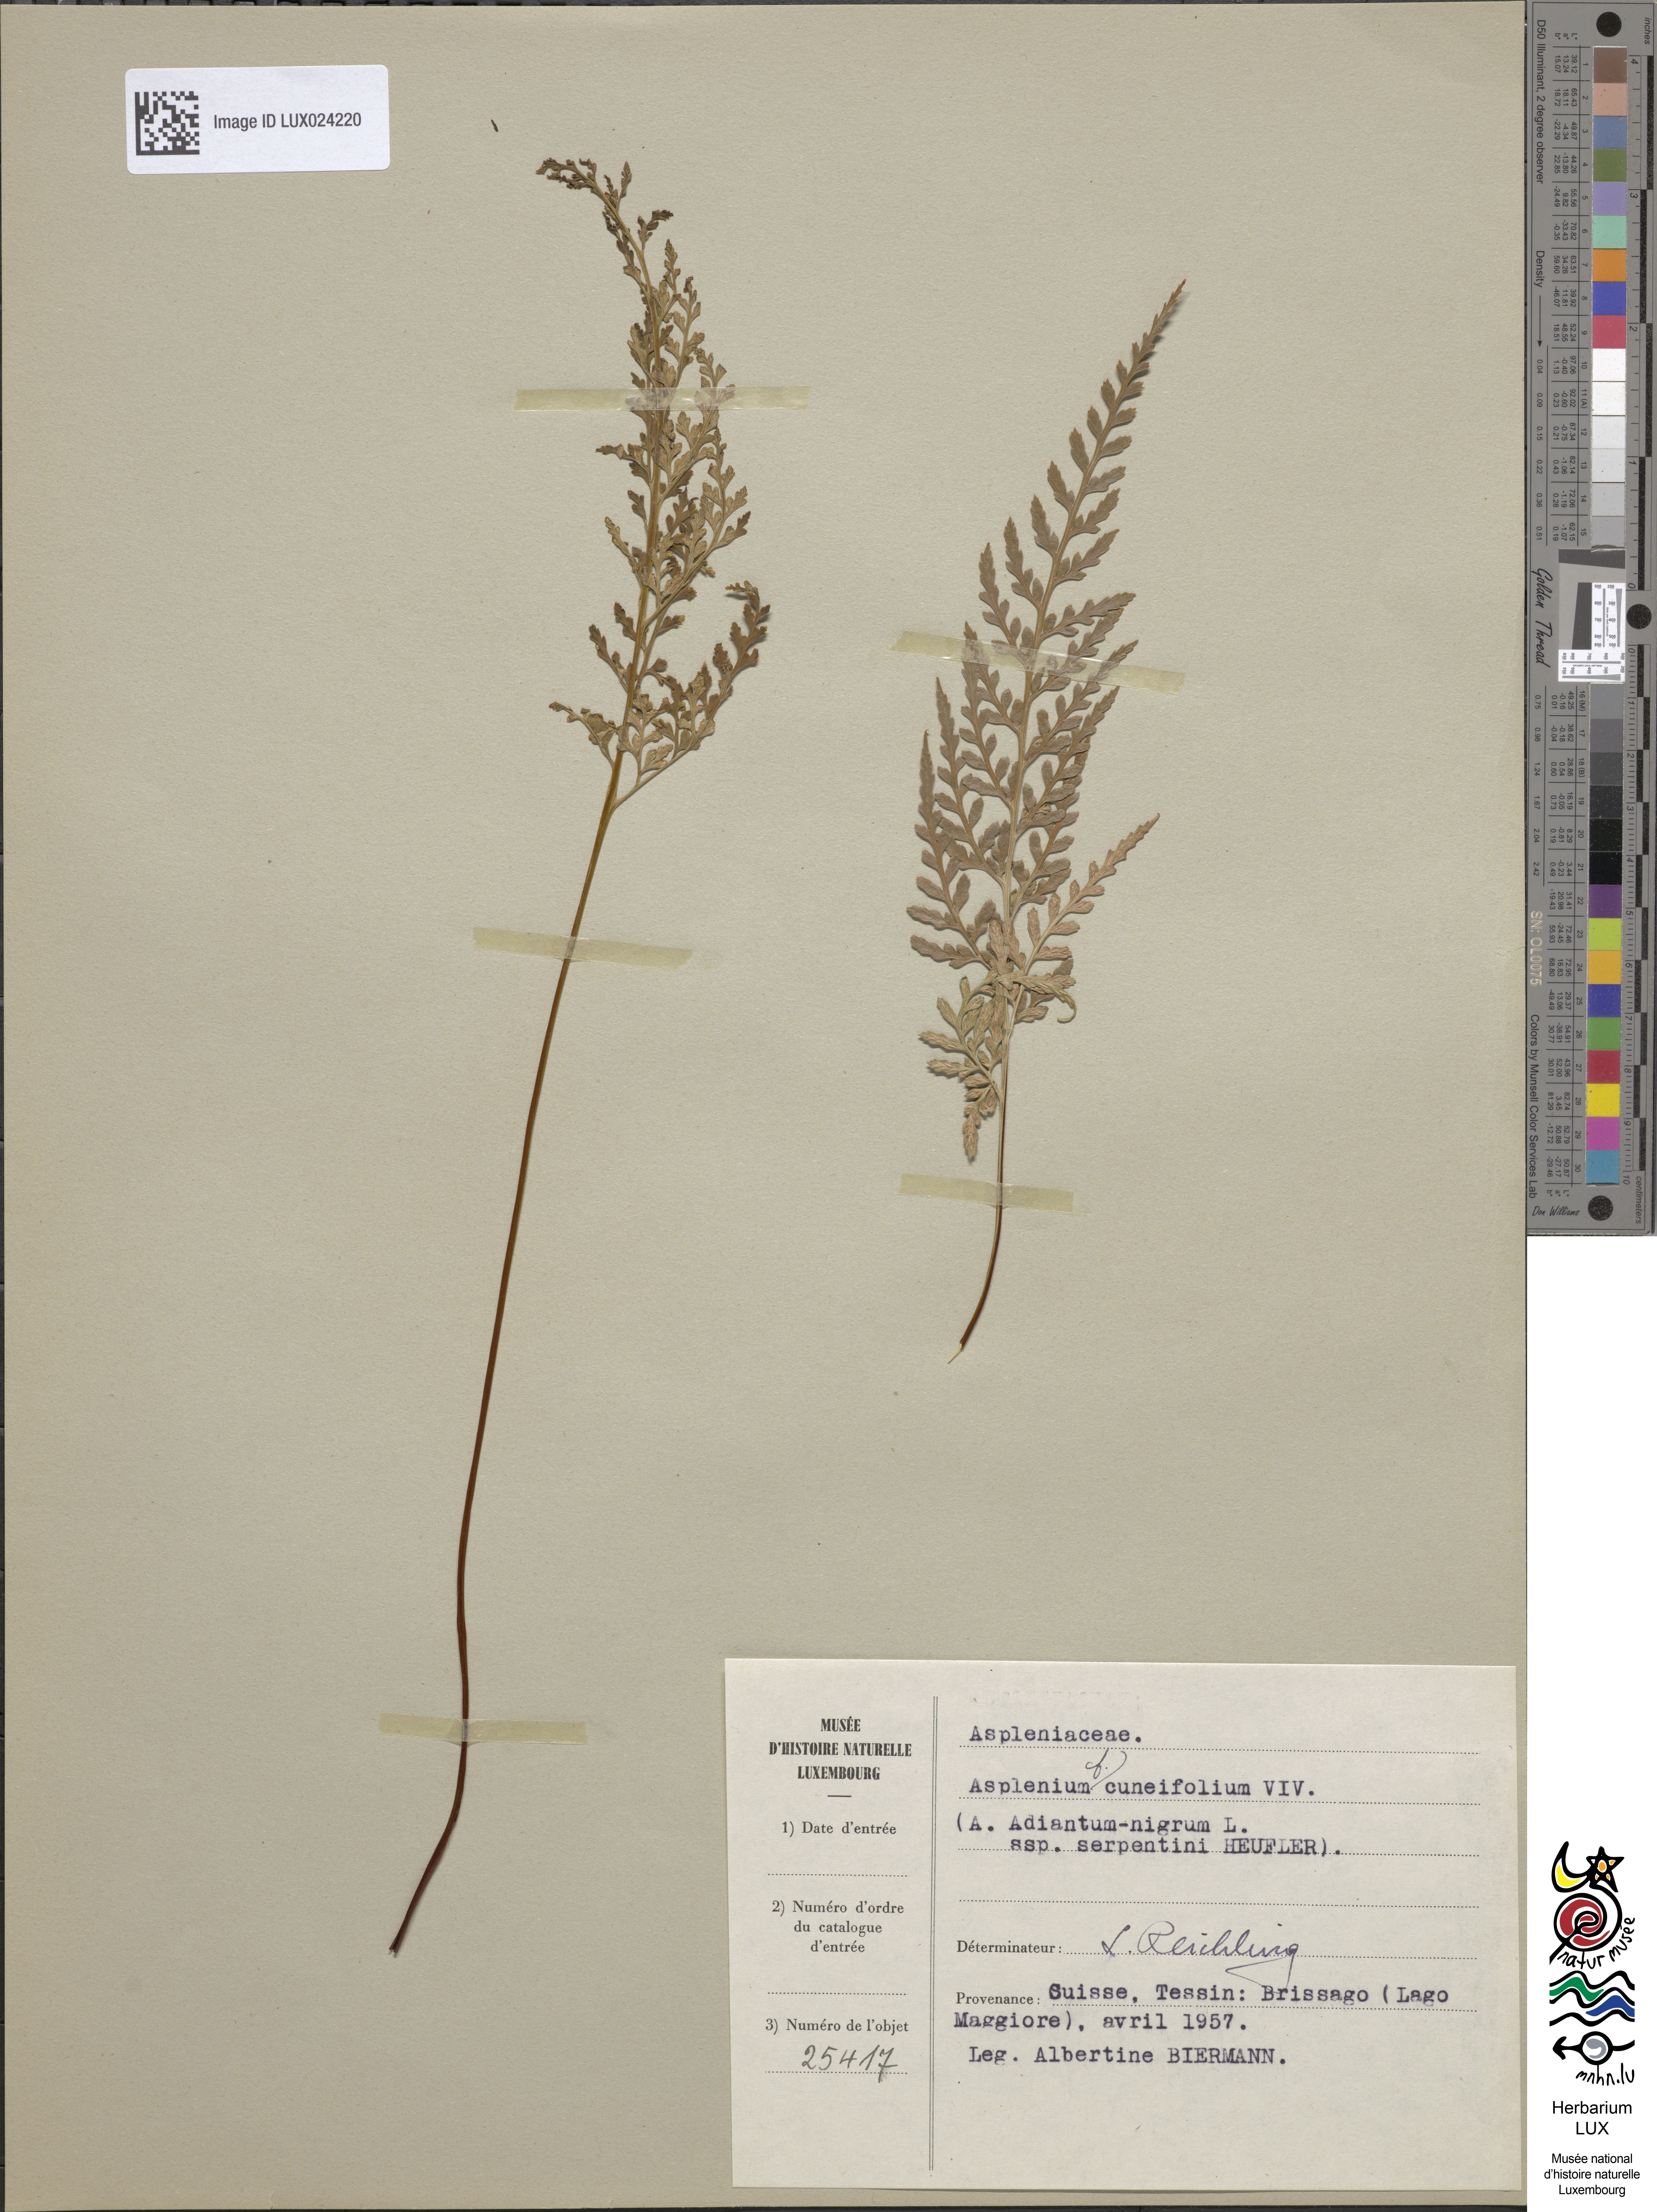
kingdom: Plantae
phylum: Tracheophyta
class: Polypodiopsida
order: Polypodiales
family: Aspleniaceae
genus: Asplenium
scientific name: Asplenium cuneifolium
